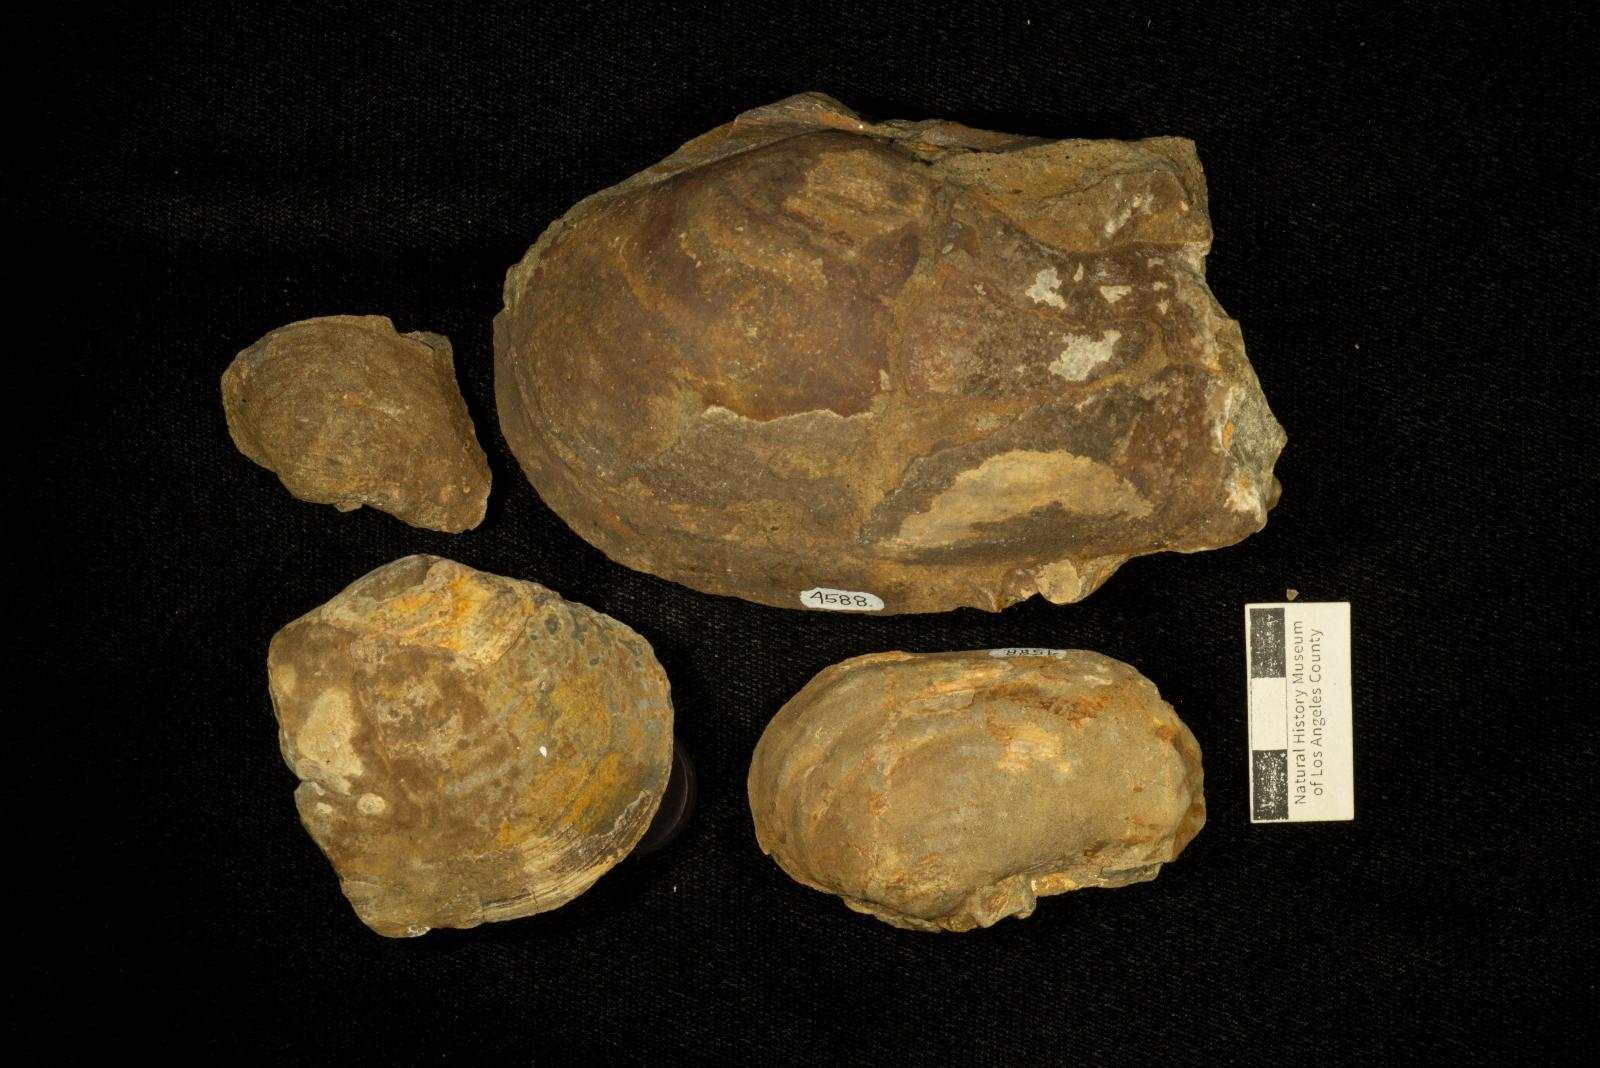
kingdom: Animalia
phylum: Mollusca
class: Bivalvia
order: Adapedonta
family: Hiatellidae
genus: Panopea
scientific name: Panopea Panope californica
